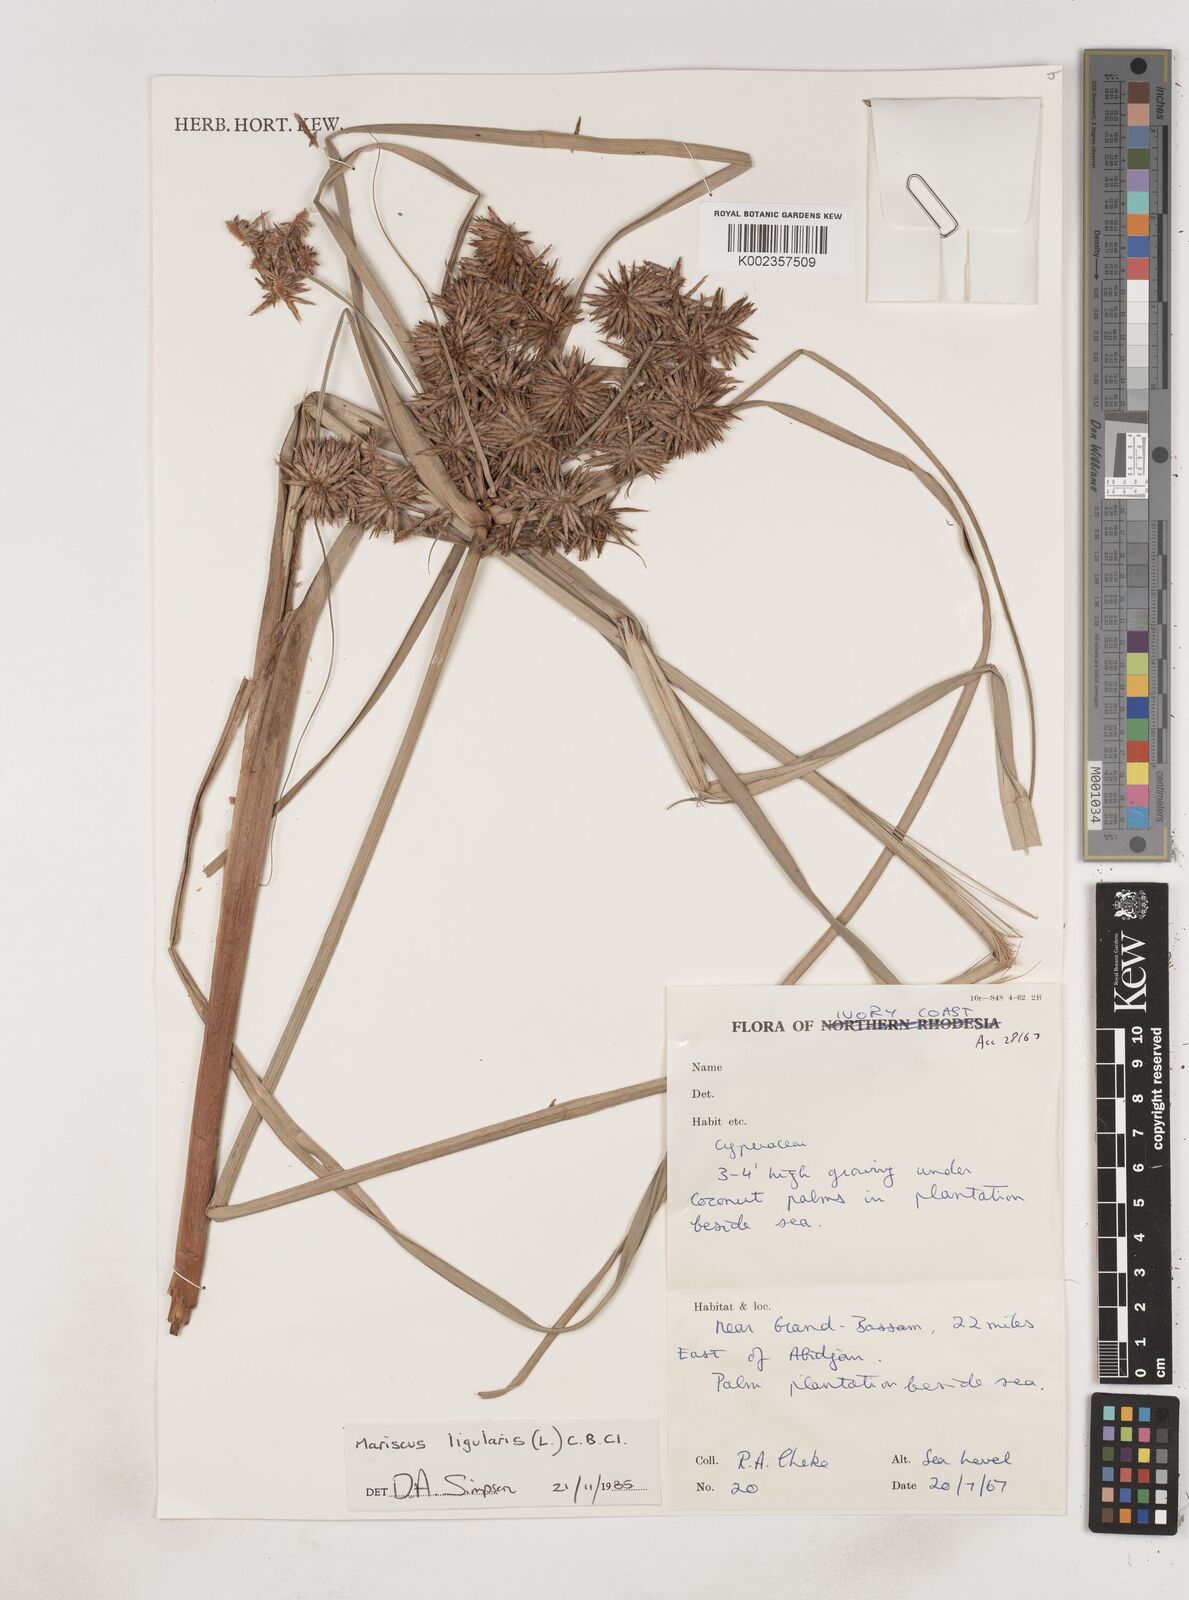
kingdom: Plantae
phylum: Tracheophyta
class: Liliopsida
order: Poales
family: Cyperaceae
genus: Cyperus
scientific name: Cyperus ligularis
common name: Swamp flat sedge
